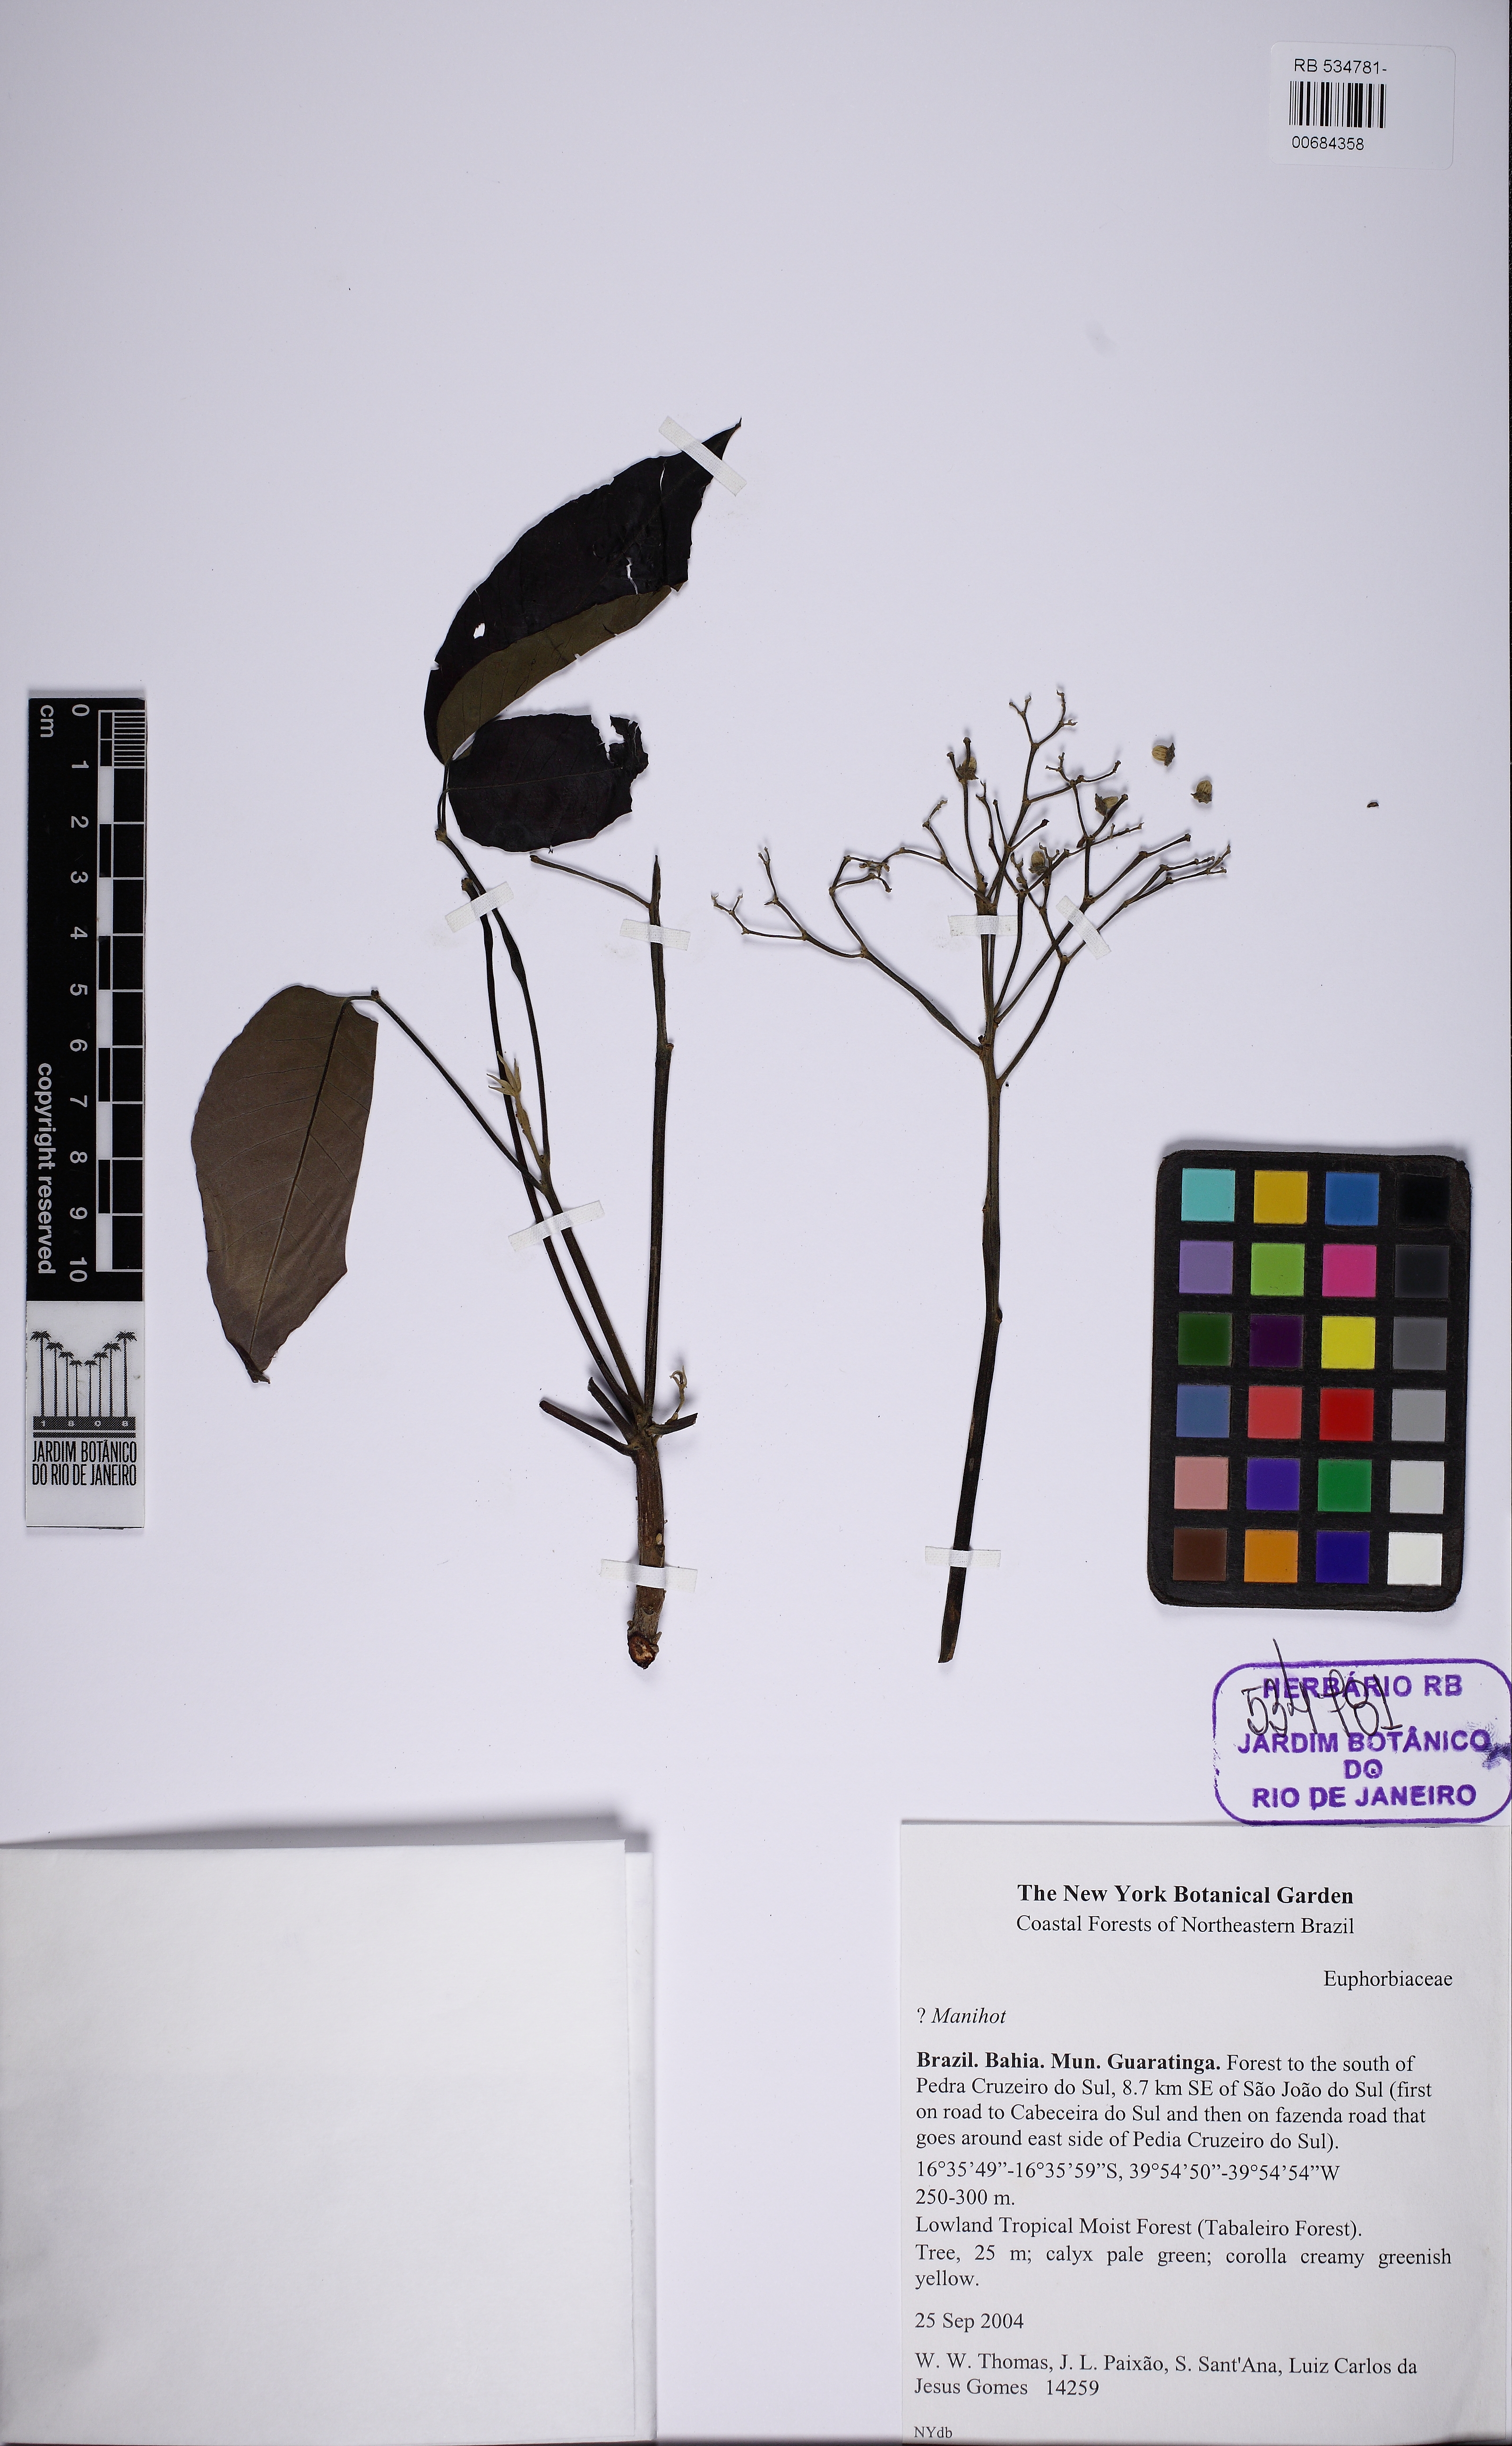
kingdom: Plantae
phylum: Tracheophyta
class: Magnoliopsida
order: Malpighiales
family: Euphorbiaceae
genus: Joannesia
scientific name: Joannesia princeps
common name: Arara nut-tree
